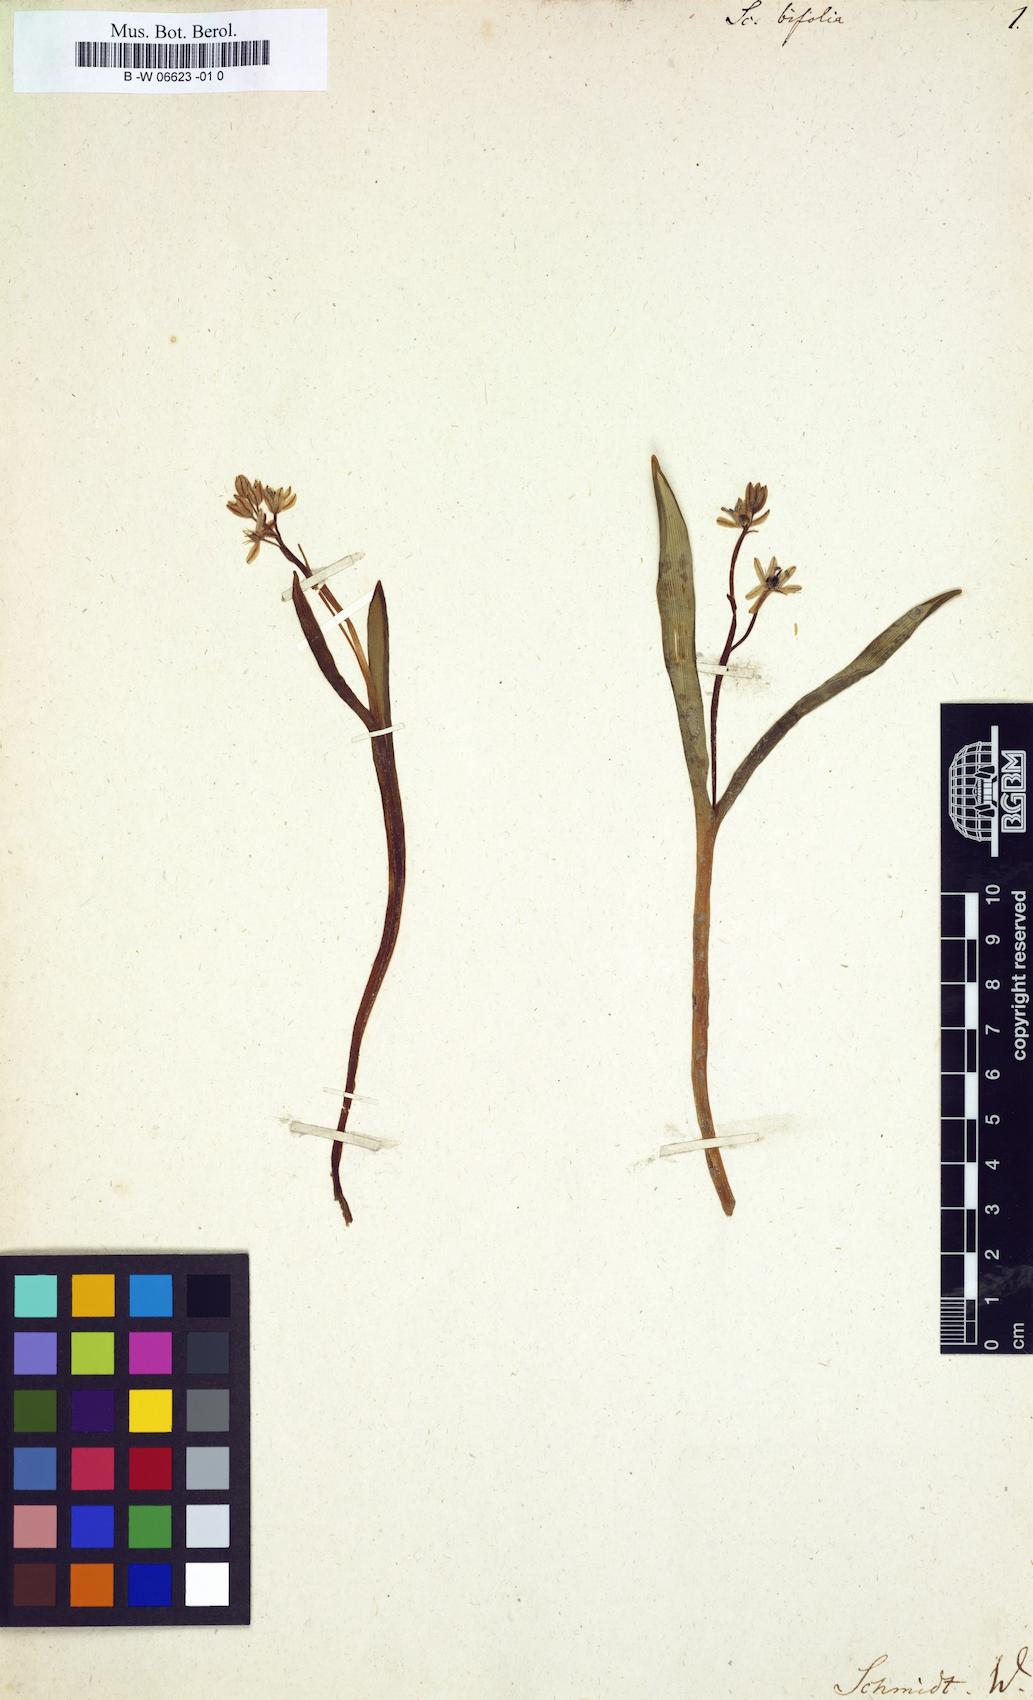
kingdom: Plantae
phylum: Tracheophyta
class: Liliopsida
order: Asparagales
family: Asparagaceae
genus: Scilla
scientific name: Scilla bifolia
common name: Alpine squill
